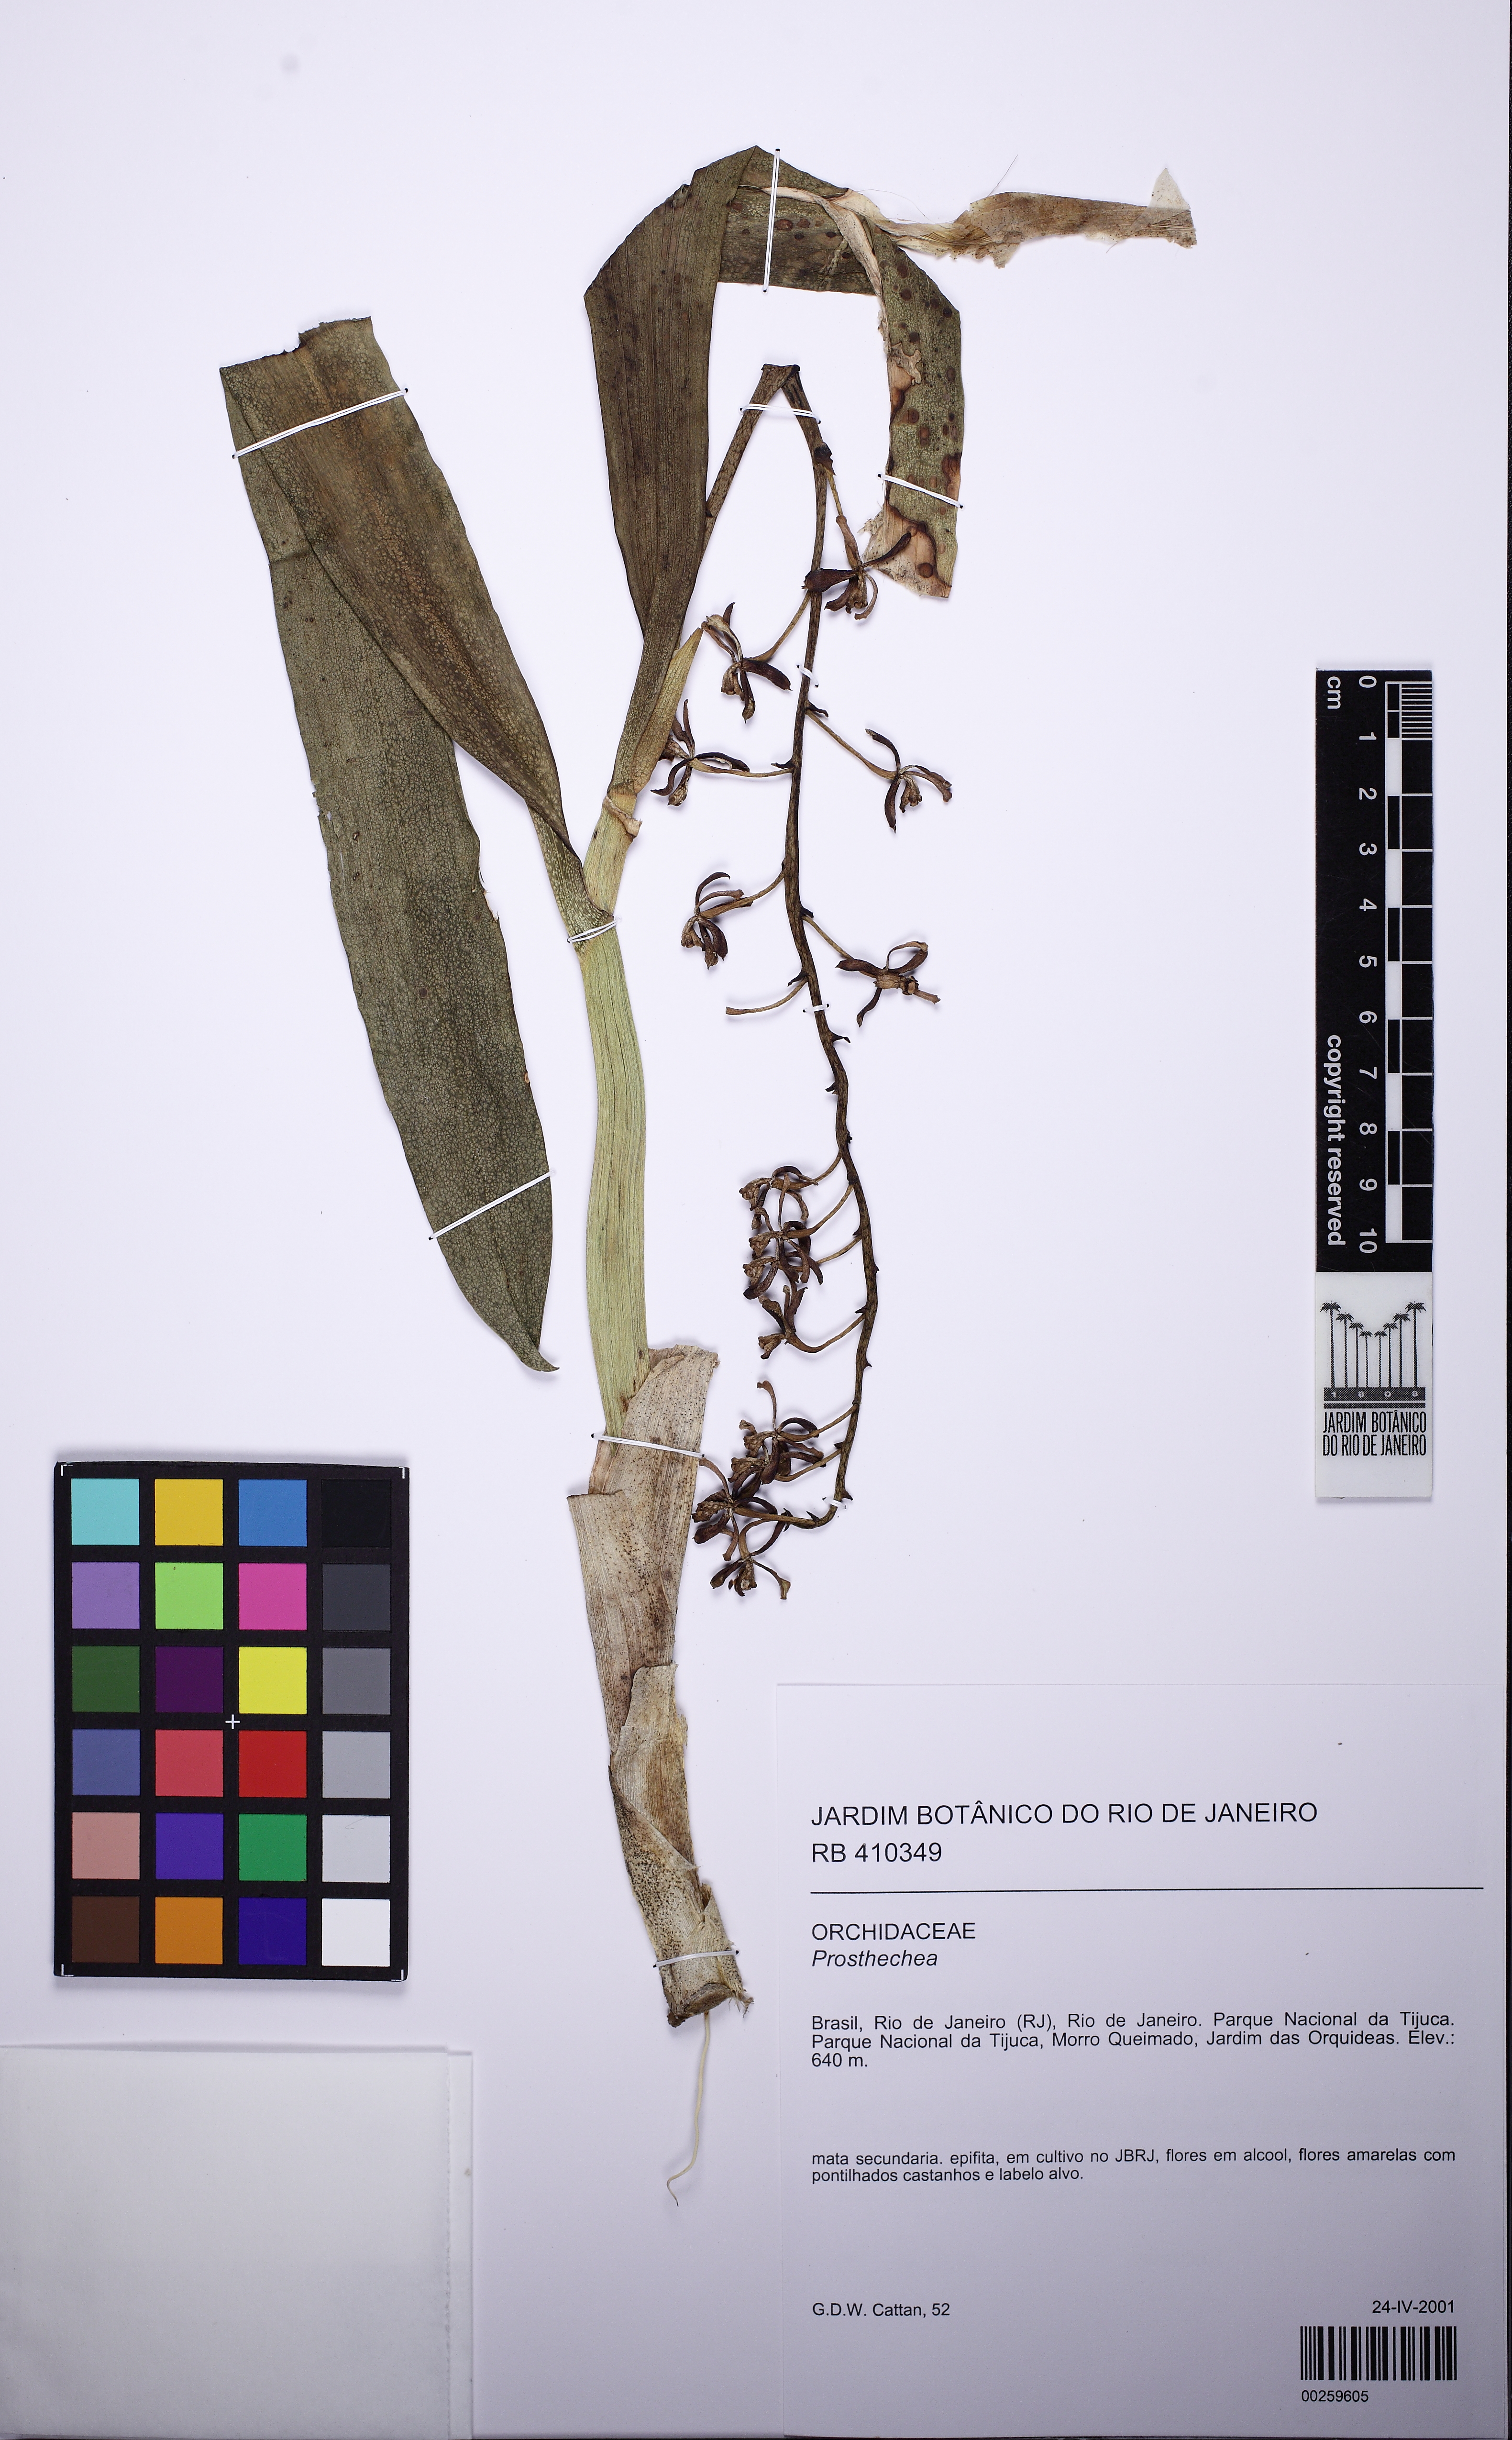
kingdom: Plantae
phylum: Tracheophyta
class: Liliopsida
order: Asparagales
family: Orchidaceae
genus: Prosthechea
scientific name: Prosthechea
